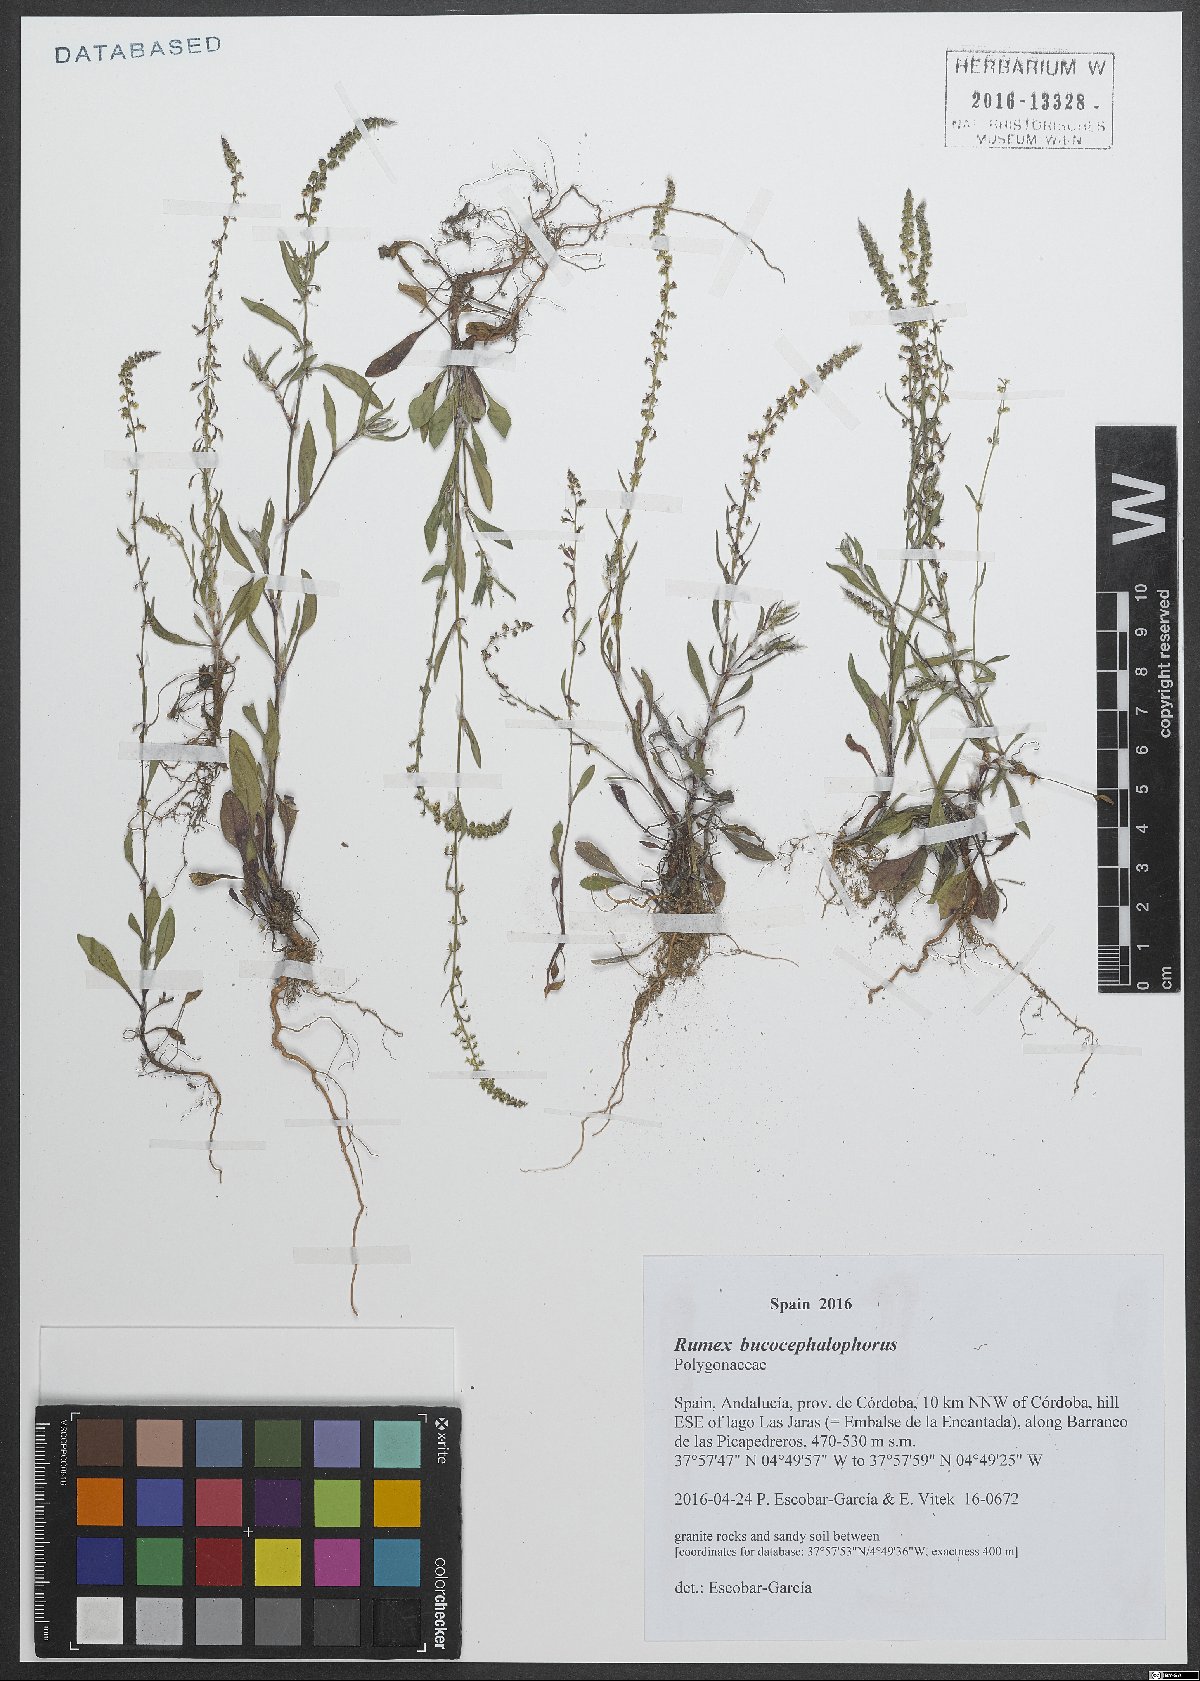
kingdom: Plantae
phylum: Tracheophyta
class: Magnoliopsida
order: Caryophyllales
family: Polygonaceae
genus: Rumex
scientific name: Rumex bucephalophorus
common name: Red dock
